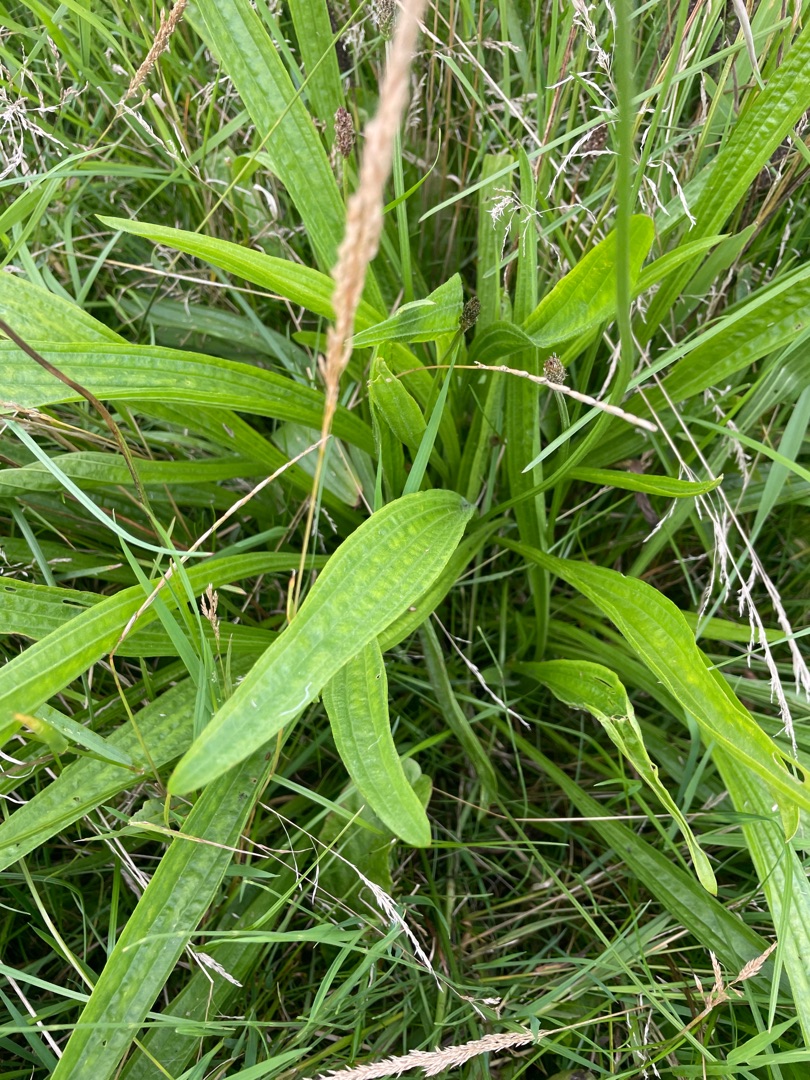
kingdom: Plantae
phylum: Tracheophyta
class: Magnoliopsida
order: Lamiales
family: Plantaginaceae
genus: Plantago
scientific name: Plantago lanceolata
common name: Lancet-vejbred
